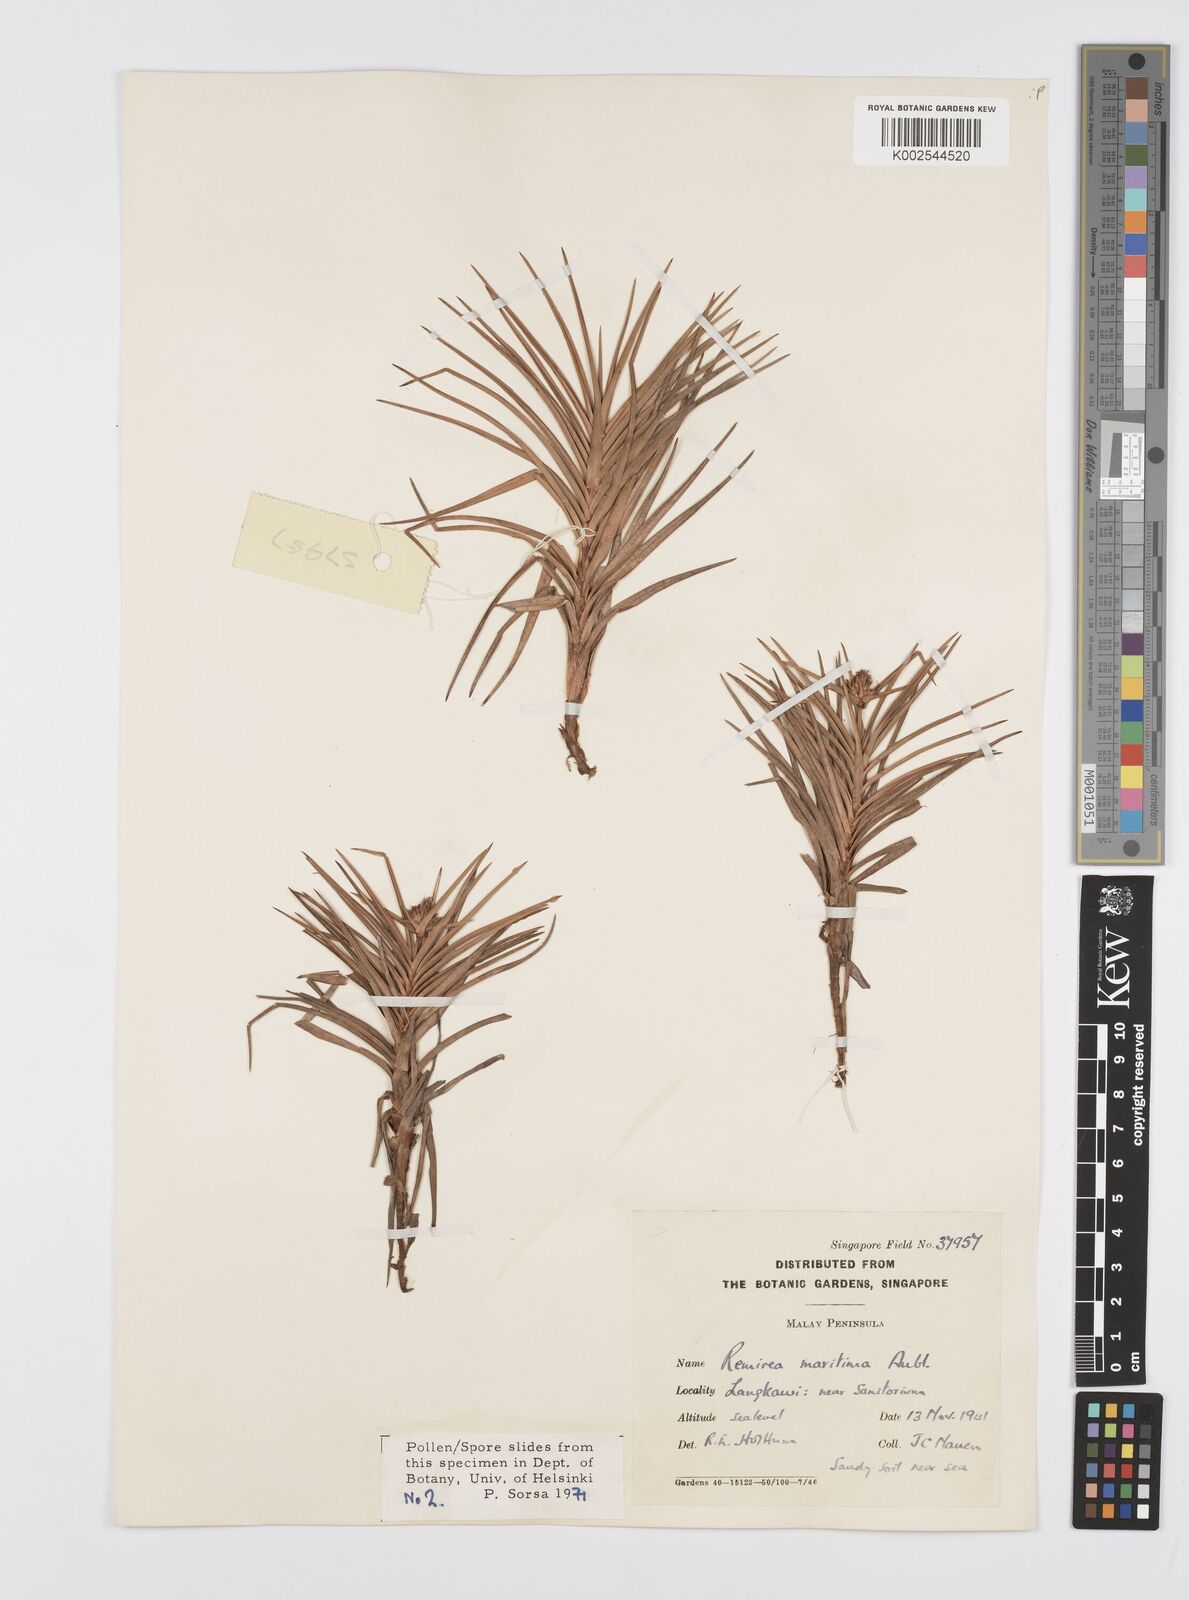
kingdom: Plantae
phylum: Tracheophyta
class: Liliopsida
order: Poales
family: Cyperaceae
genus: Cyperus
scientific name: Cyperus
